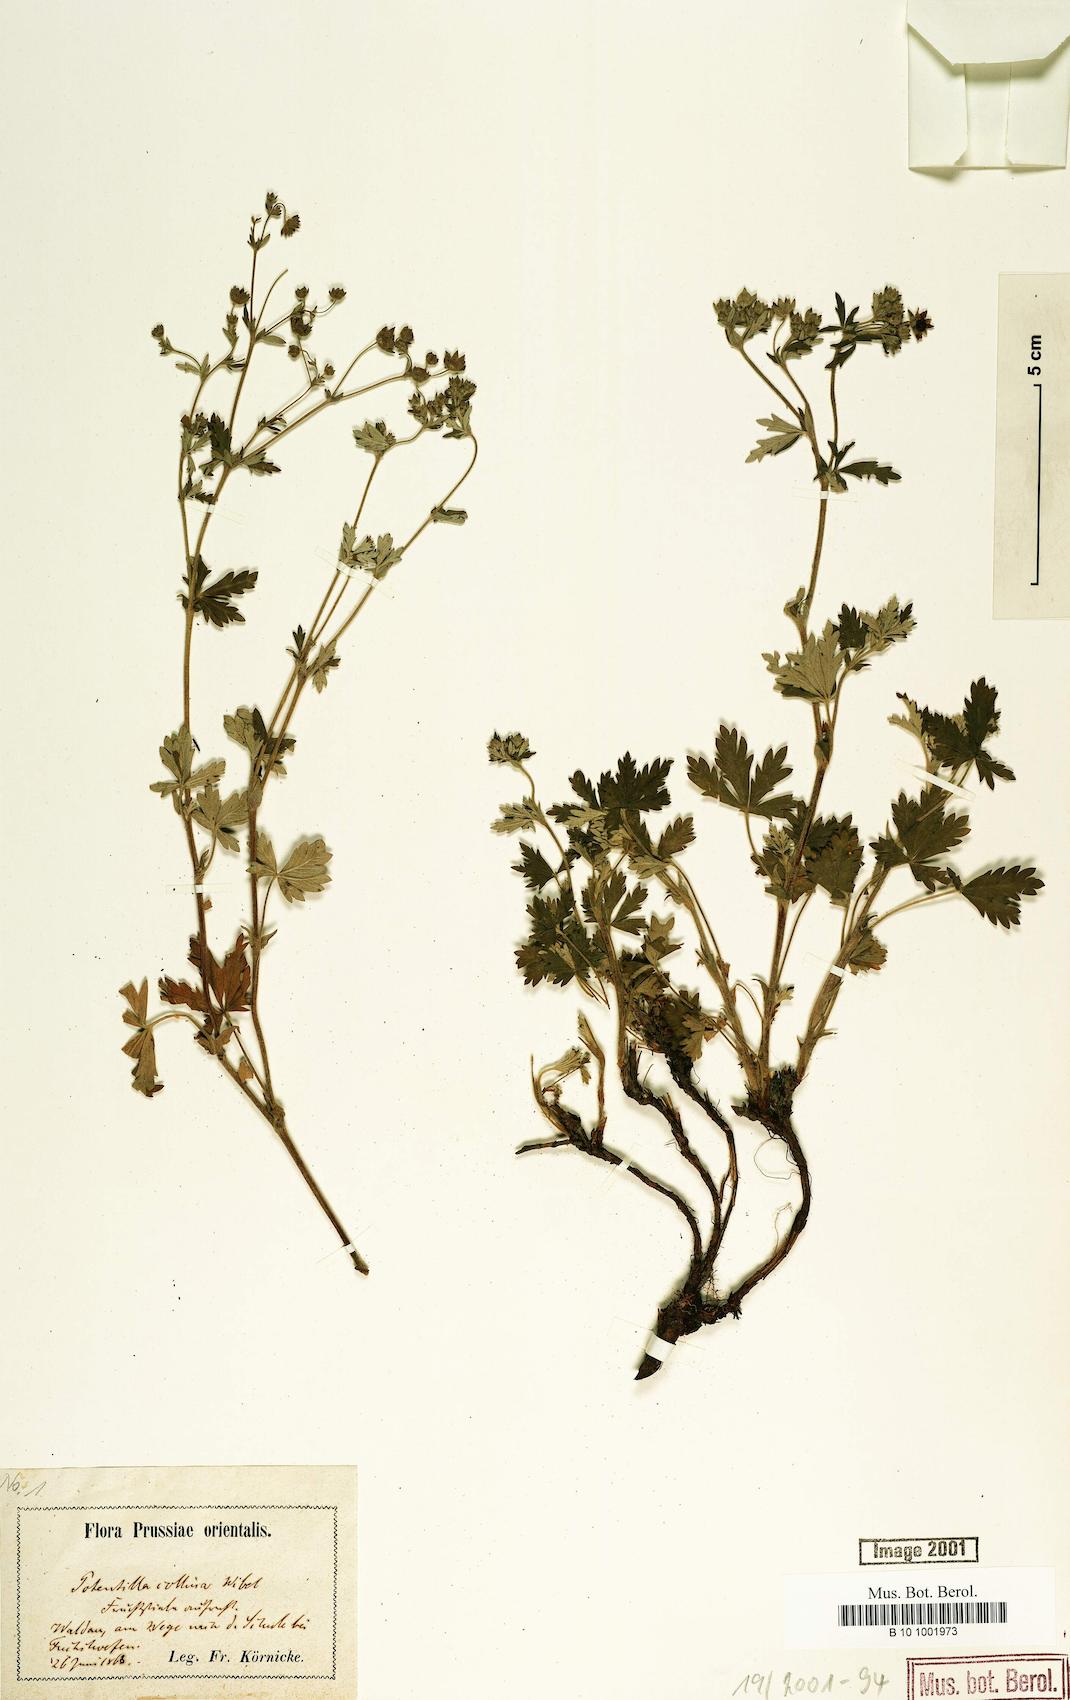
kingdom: Plantae
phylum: Tracheophyta
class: Magnoliopsida
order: Rosales
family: Rosaceae
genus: Potentilla
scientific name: Potentilla collina
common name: Palmleaf cinquefoil
